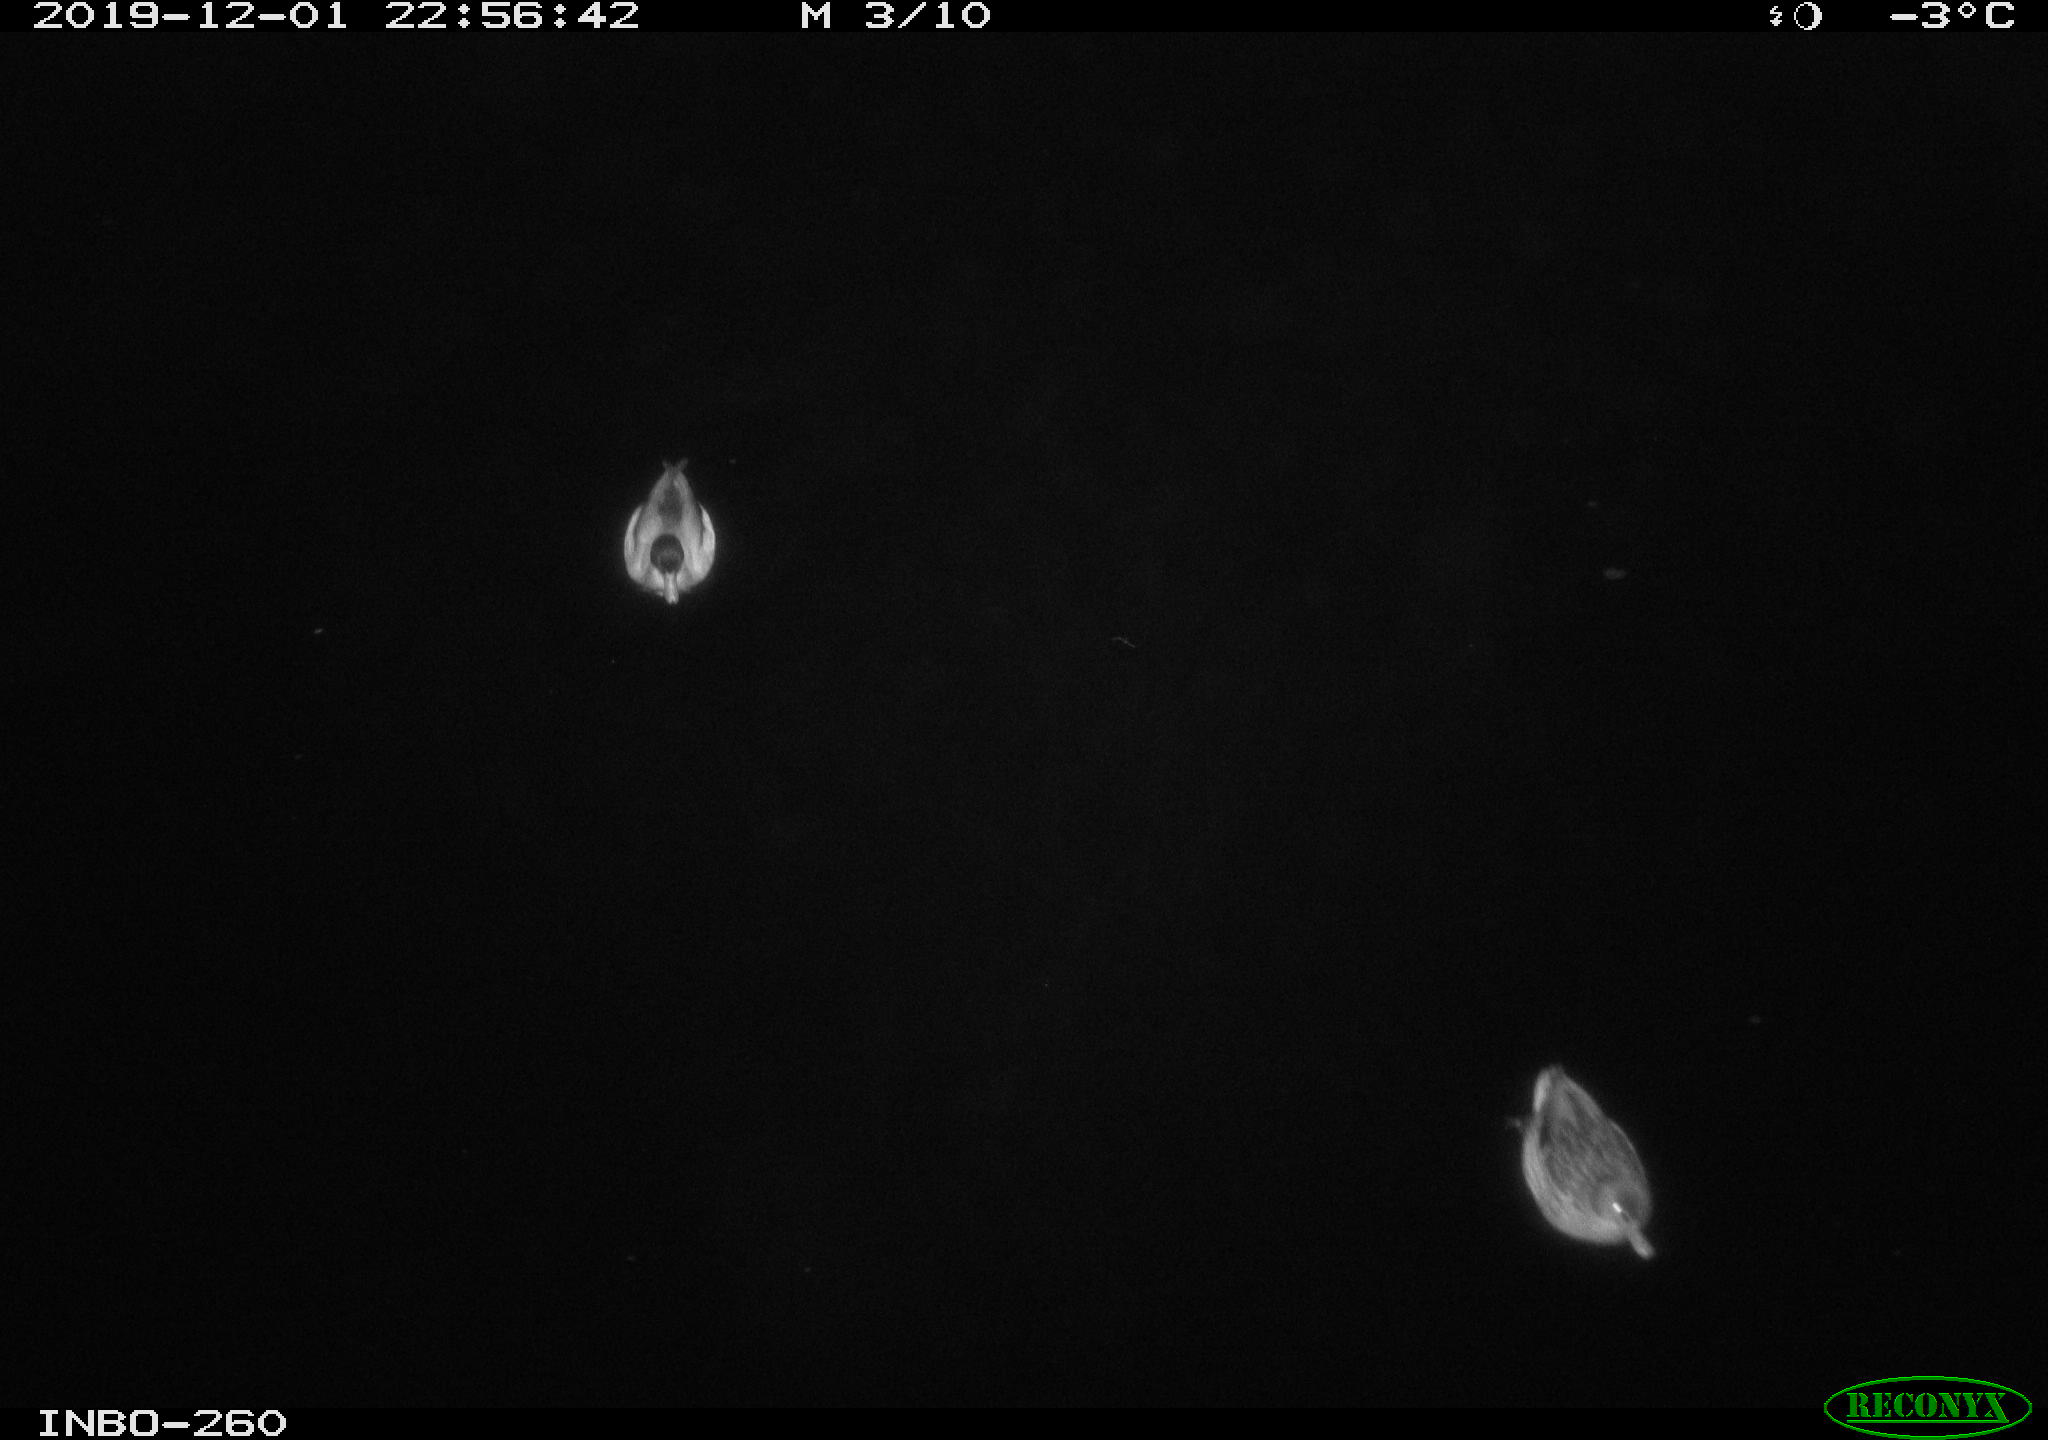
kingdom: Animalia
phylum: Chordata
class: Aves
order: Anseriformes
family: Anatidae
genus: Anas
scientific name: Anas platyrhynchos
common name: Mallard
